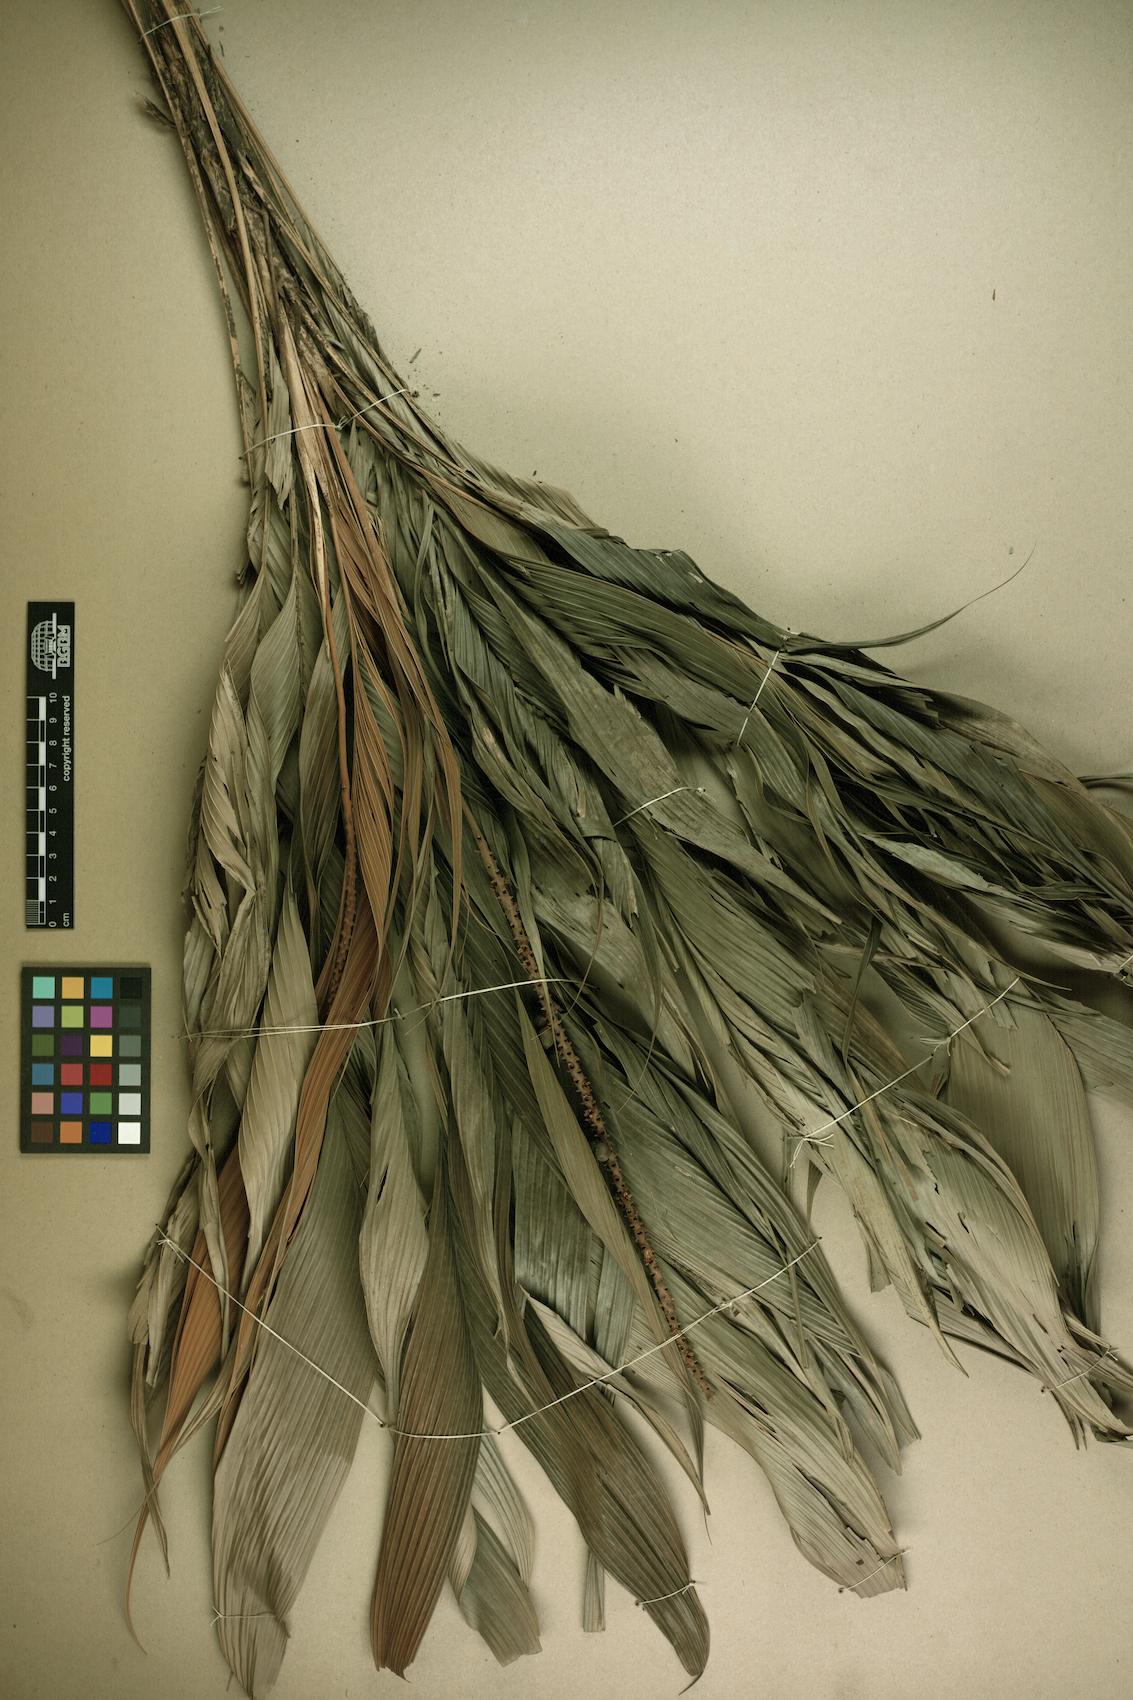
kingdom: Plantae
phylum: Tracheophyta
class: Liliopsida
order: Arecales
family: Arecaceae
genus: Geonoma
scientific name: Geonoma
